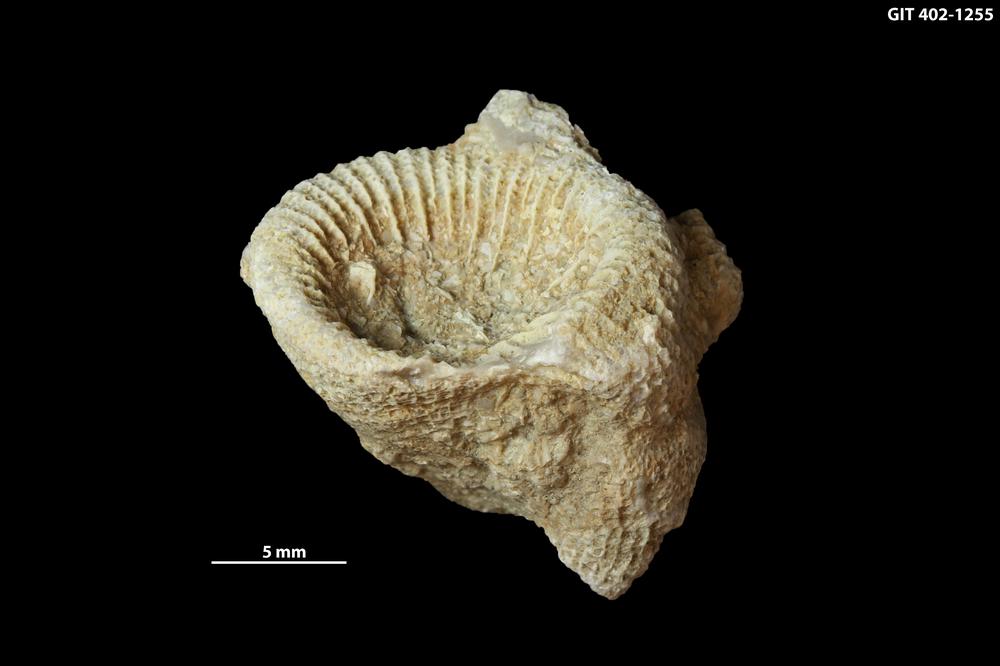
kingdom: Animalia
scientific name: Animalia
